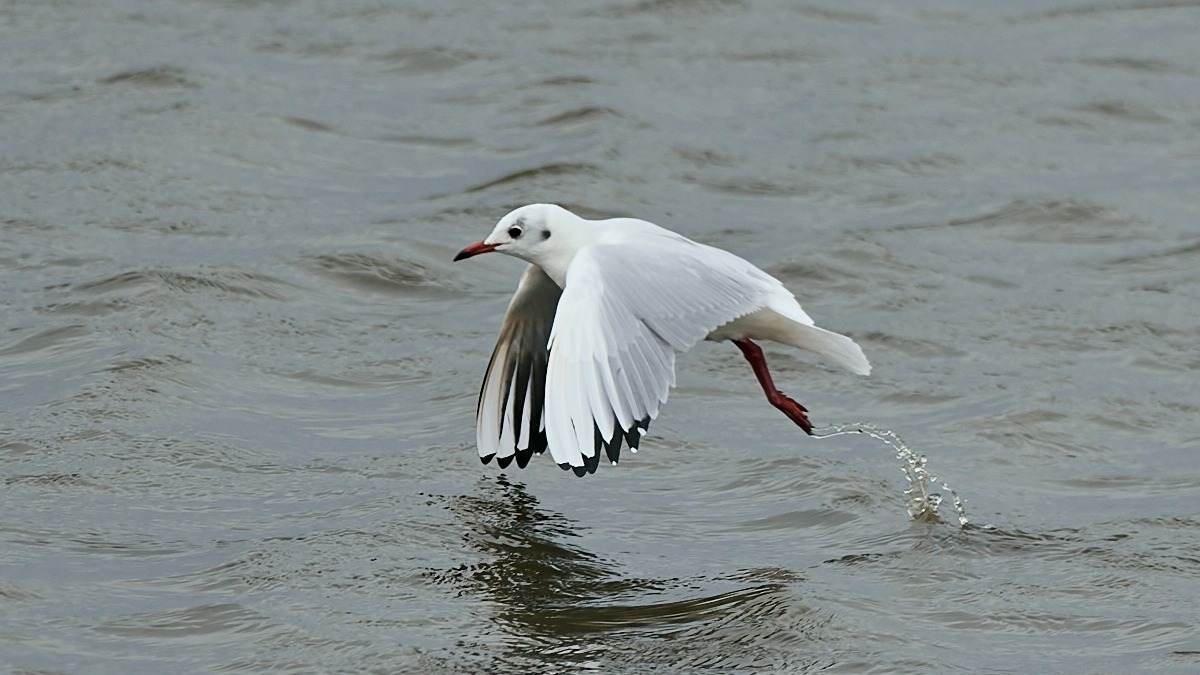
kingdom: Animalia
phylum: Chordata
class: Aves
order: Charadriiformes
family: Laridae
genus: Chroicocephalus
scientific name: Chroicocephalus ridibundus
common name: Hættemåge
